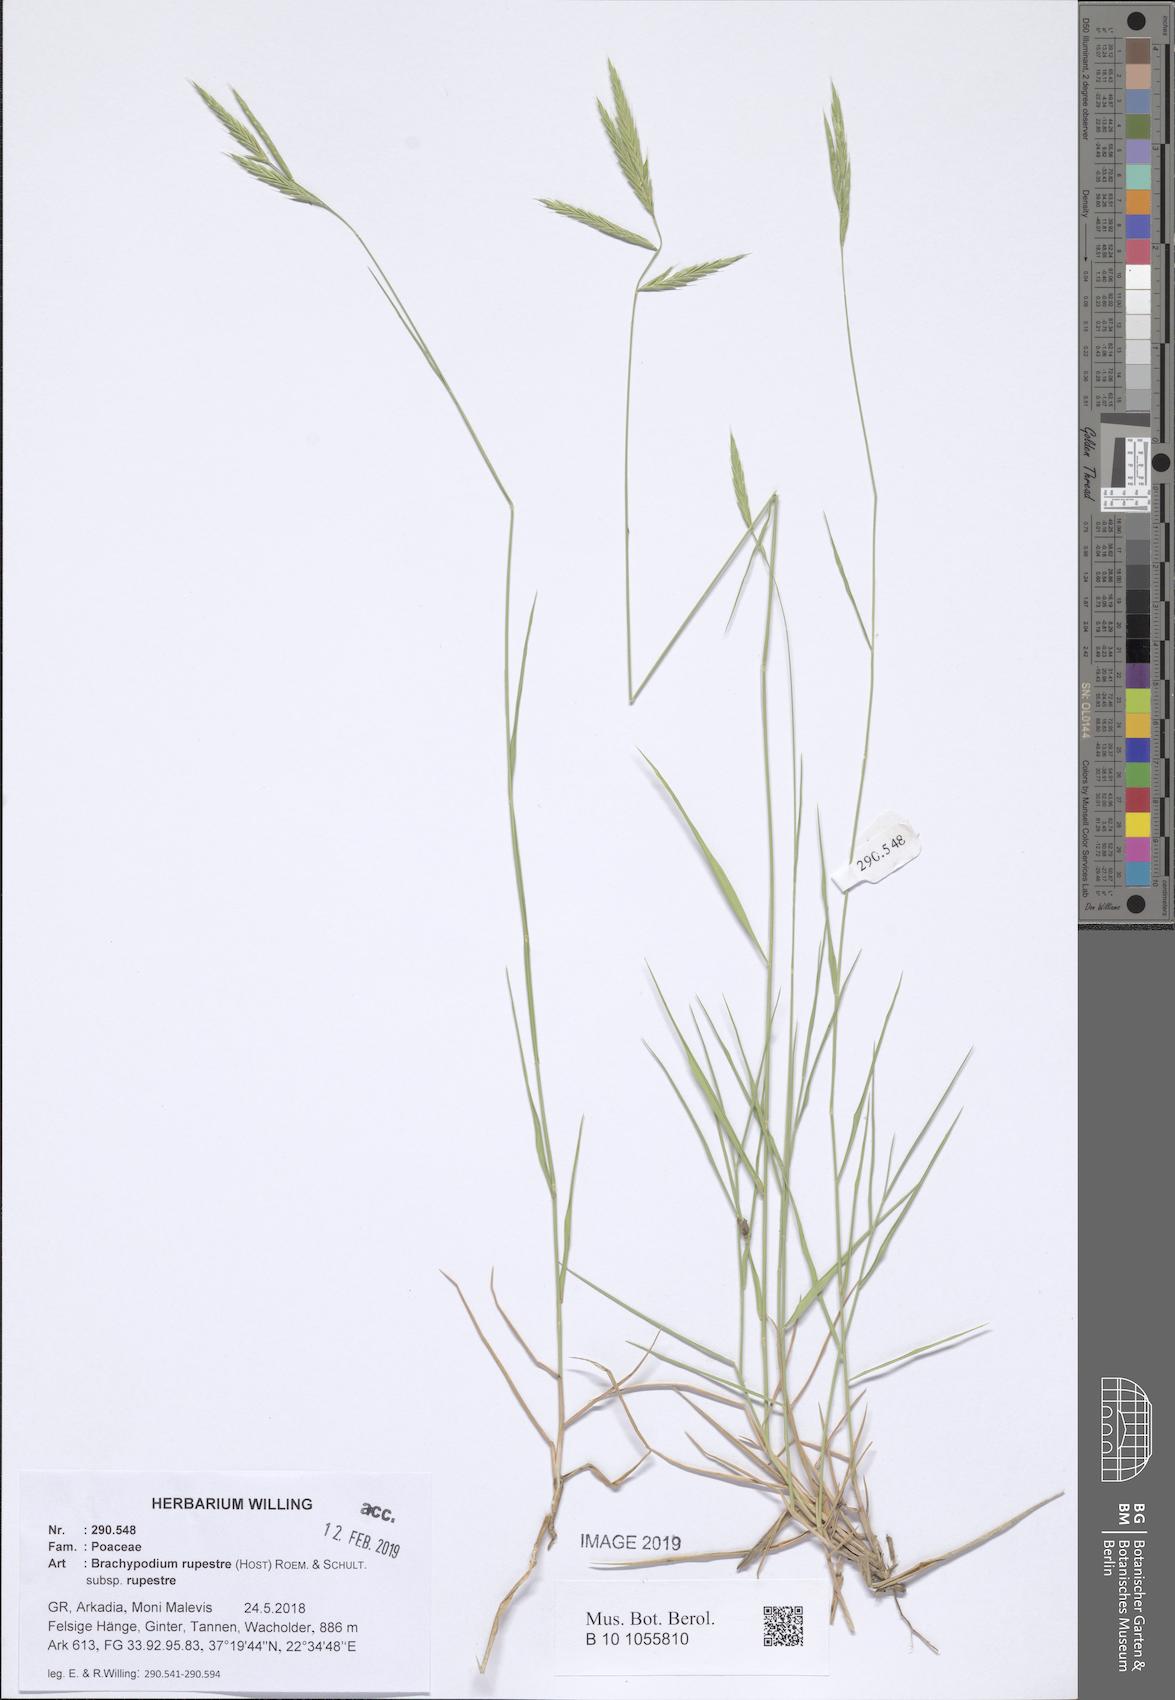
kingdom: Plantae
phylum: Tracheophyta
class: Liliopsida
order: Poales
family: Poaceae
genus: Brachypodium
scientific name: Brachypodium pinnatum
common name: Tor grass
